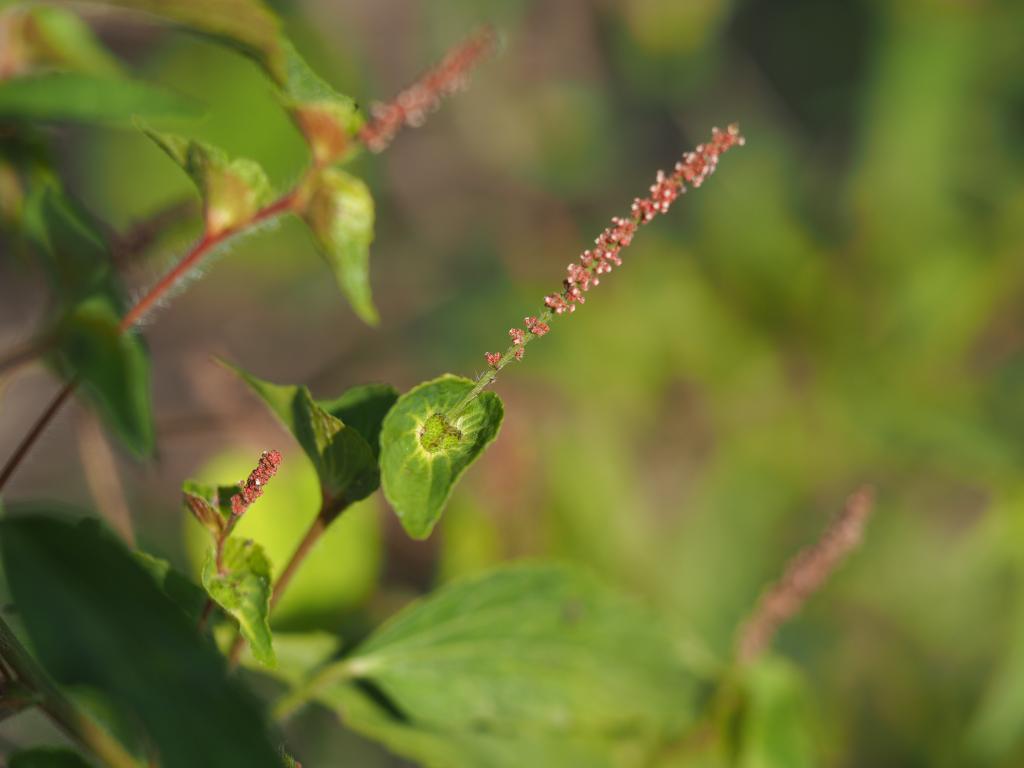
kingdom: Plantae
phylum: Tracheophyta
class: Magnoliopsida
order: Malpighiales
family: Euphorbiaceae
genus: Acalypha
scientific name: Acalypha australis
